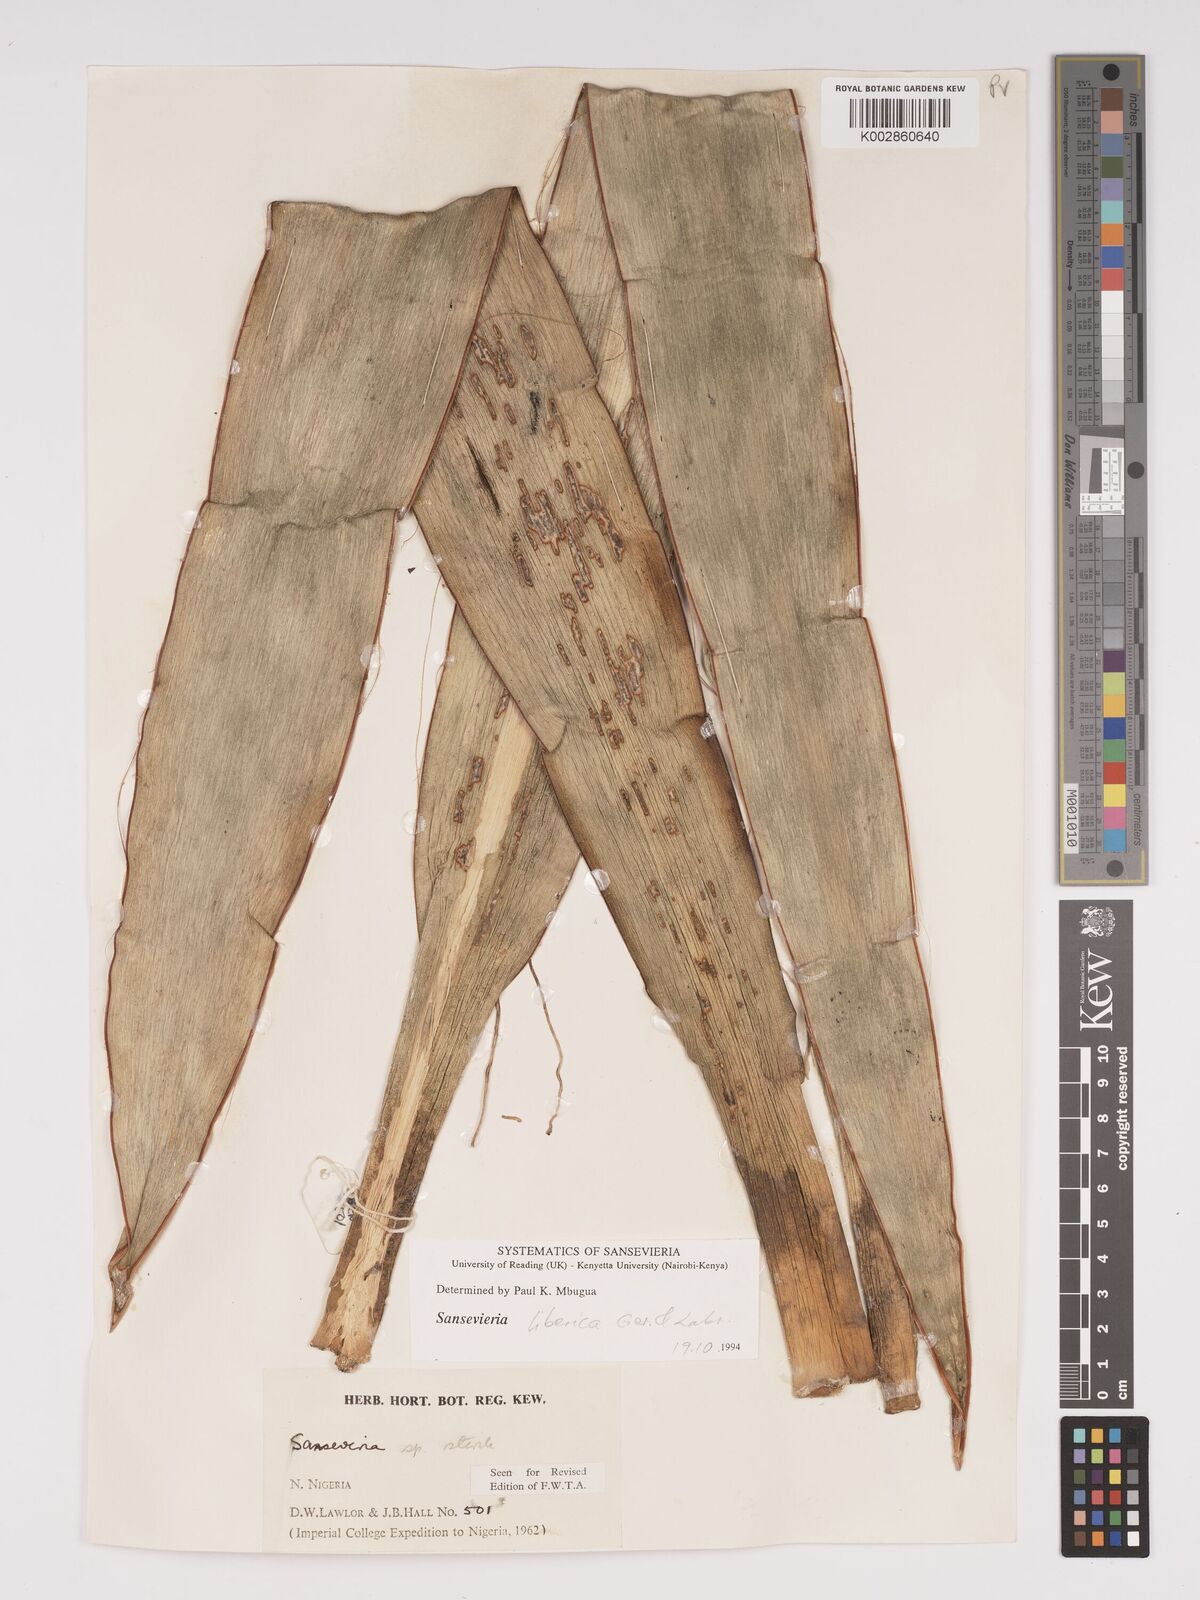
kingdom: Plantae
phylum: Tracheophyta
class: Liliopsida
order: Asparagales
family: Asparagaceae
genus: Dracaena
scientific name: Dracaena liberica
